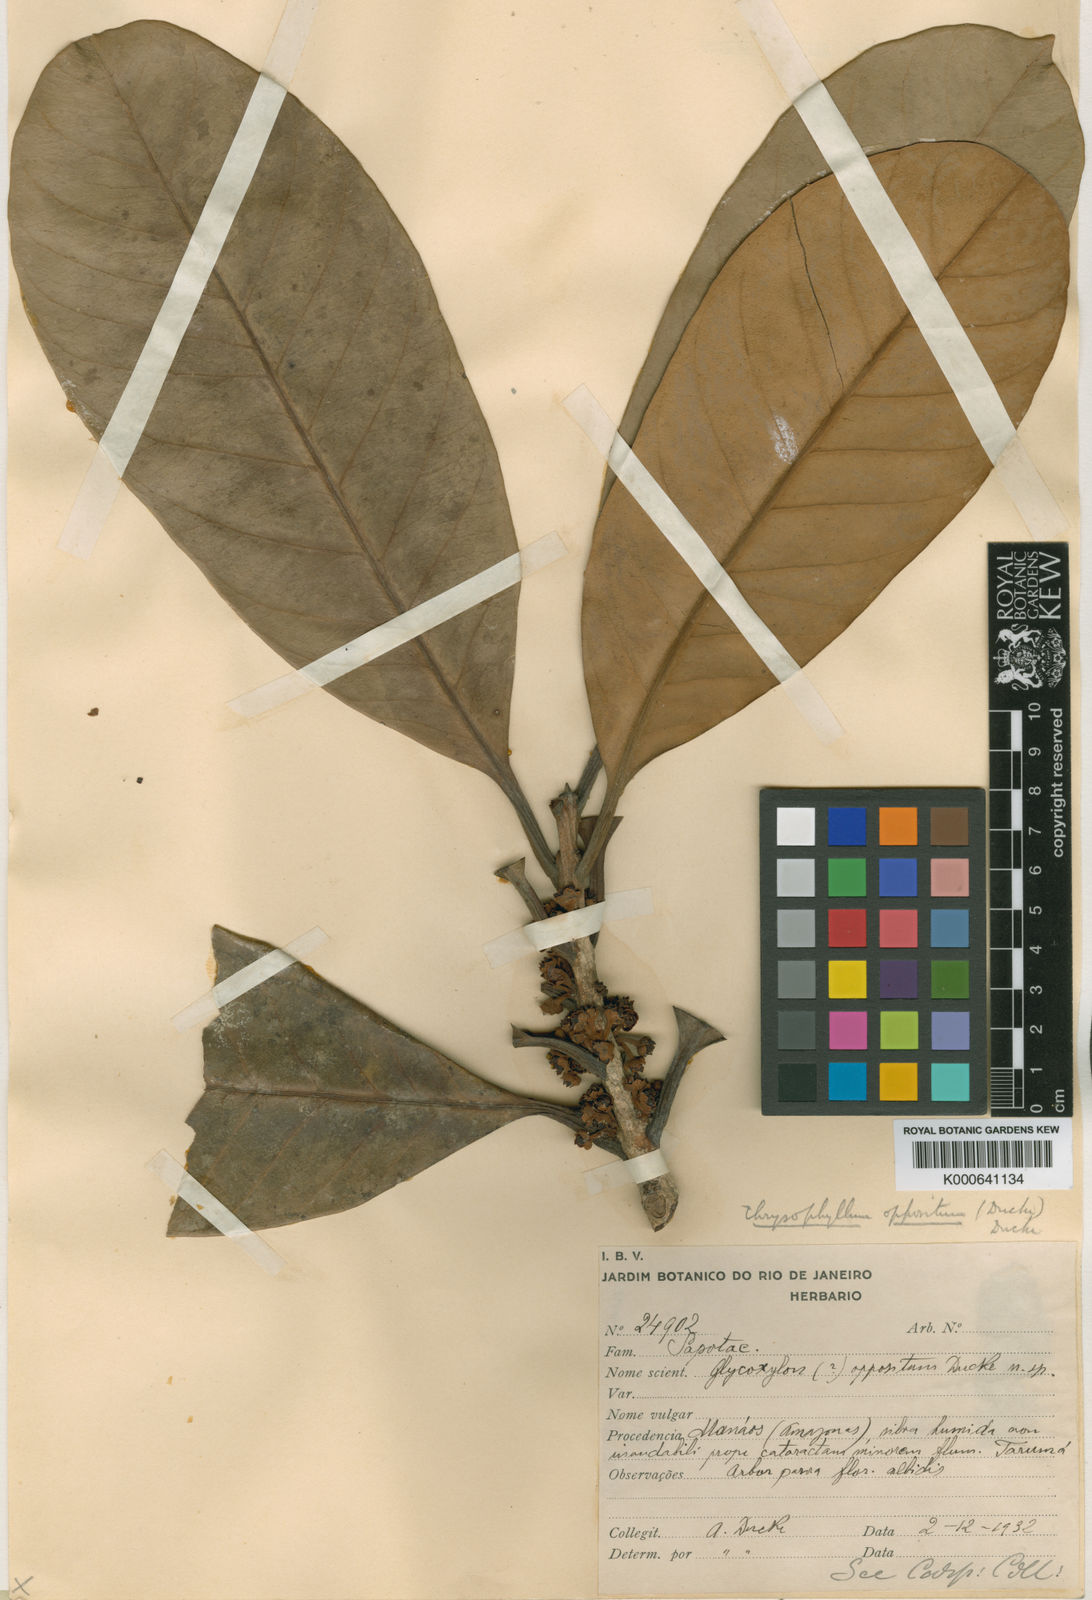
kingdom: Plantae
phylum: Tracheophyta
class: Magnoliopsida
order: Ericales
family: Sapotaceae
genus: Pouteria
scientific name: Pouteria opposita
